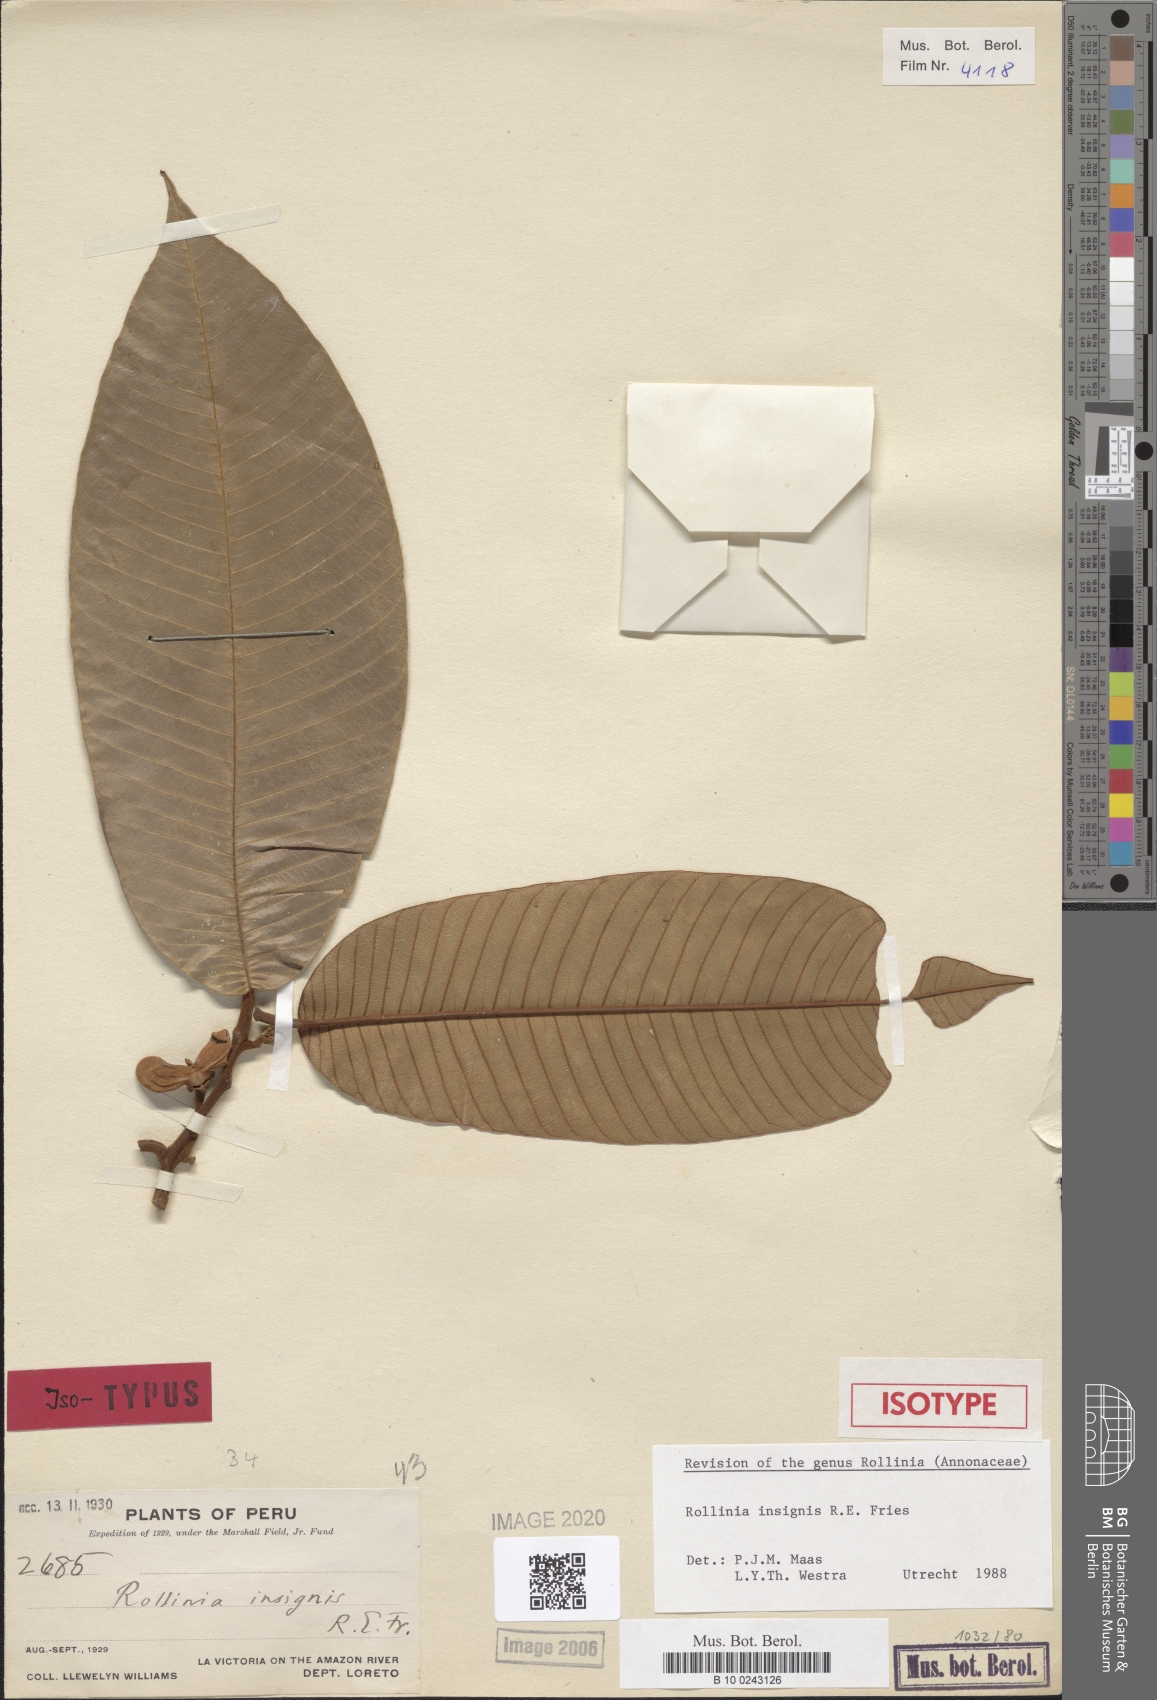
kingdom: Plantae
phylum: Tracheophyta
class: Magnoliopsida
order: Magnoliales
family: Annonaceae
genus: Annona
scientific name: Annona neoinsignis
